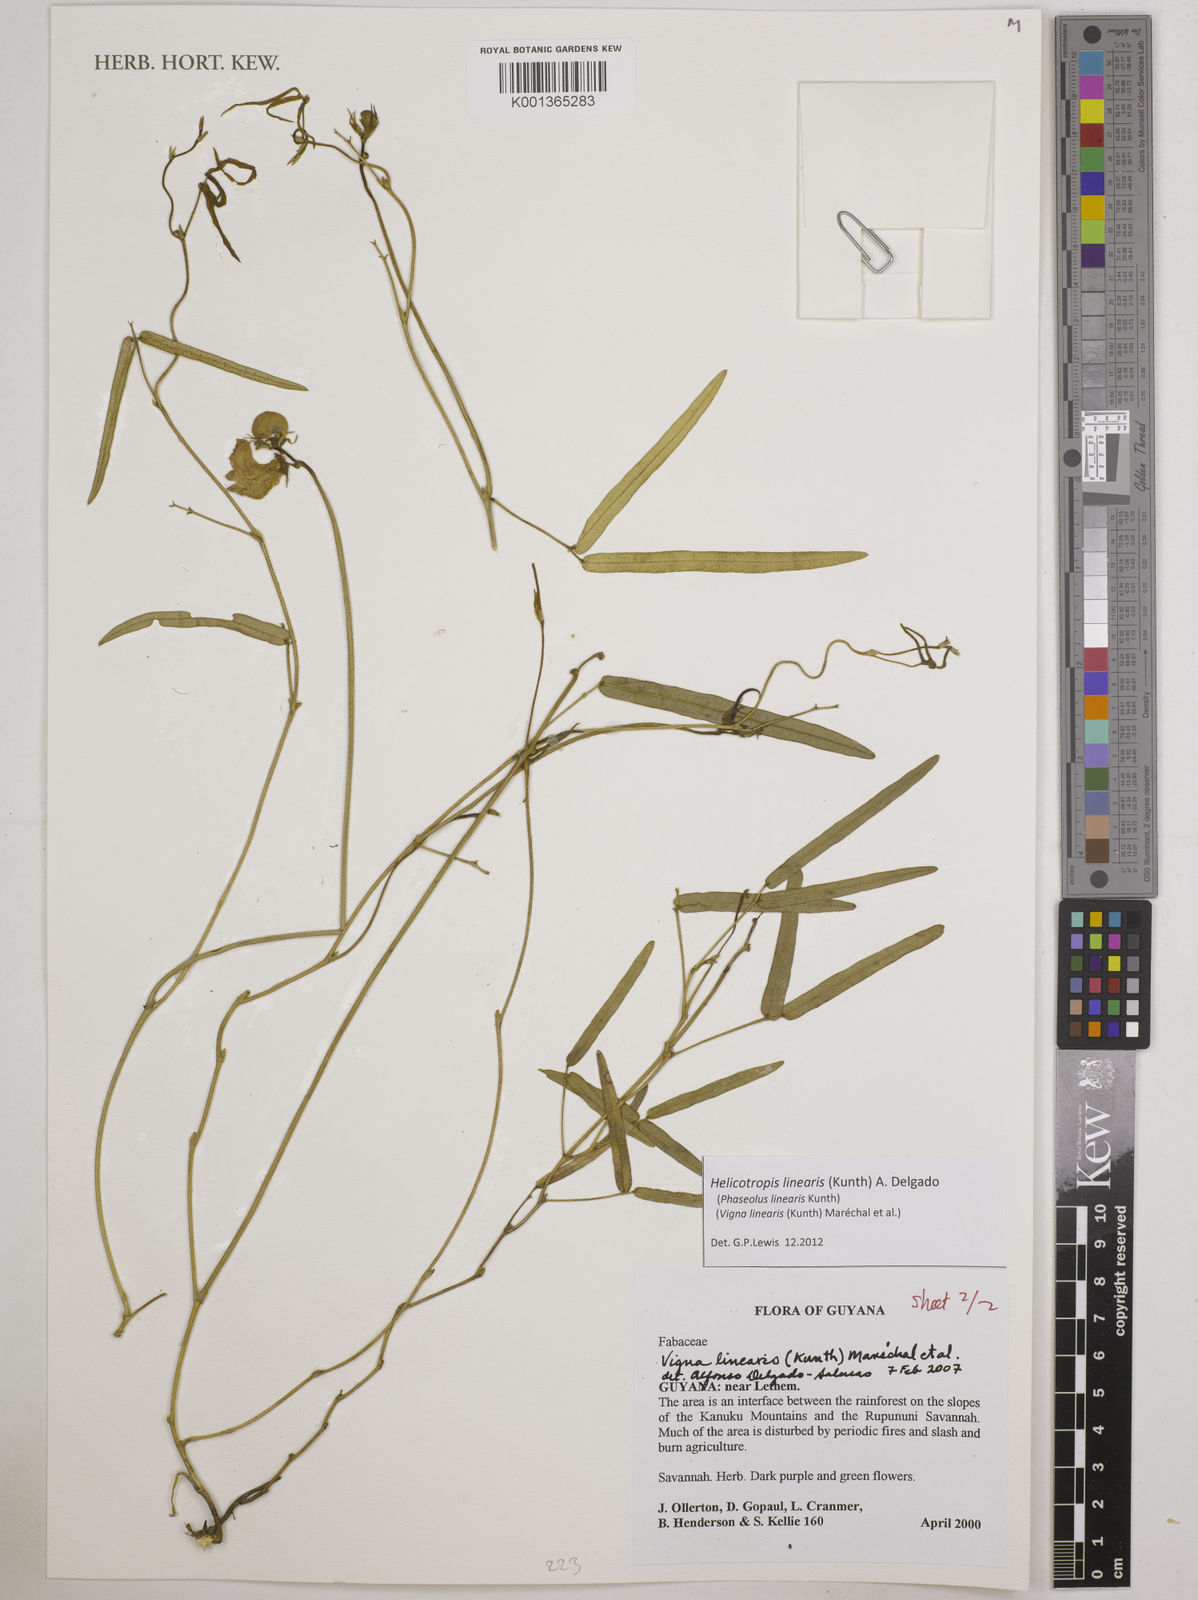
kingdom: Plantae
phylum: Tracheophyta
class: Magnoliopsida
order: Fabales
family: Fabaceae
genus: Helicotropis
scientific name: Helicotropis linearis
